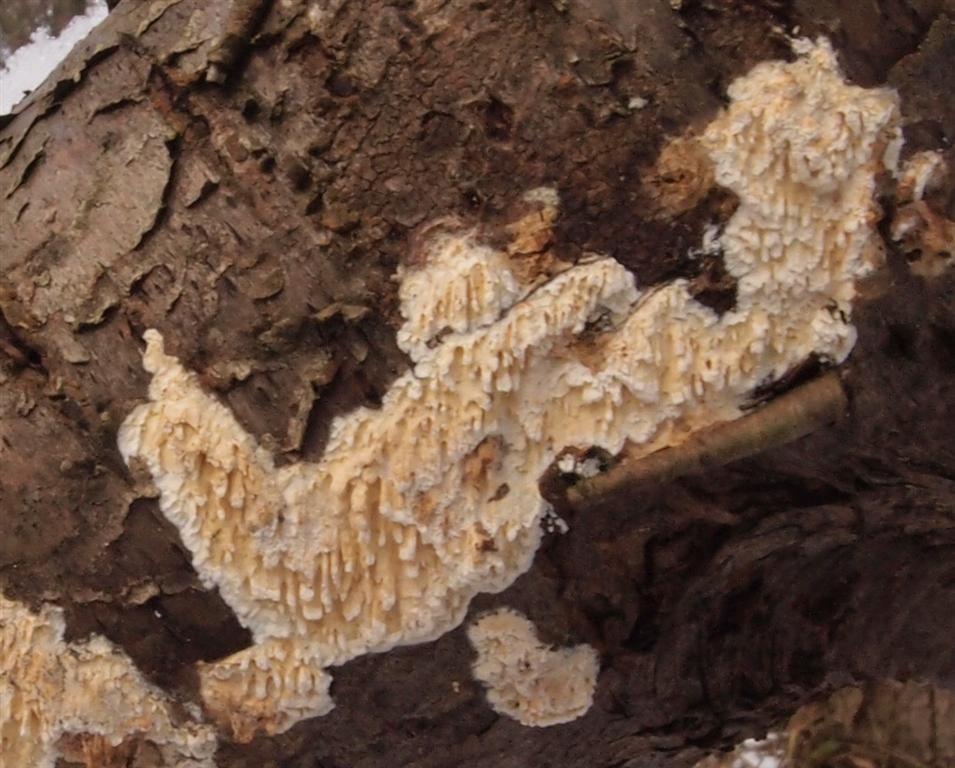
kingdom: Fungi
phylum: Basidiomycota
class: Agaricomycetes
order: Hymenochaetales
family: Schizoporaceae
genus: Xylodon
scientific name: Xylodon radula
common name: grovtandet kalkskind
